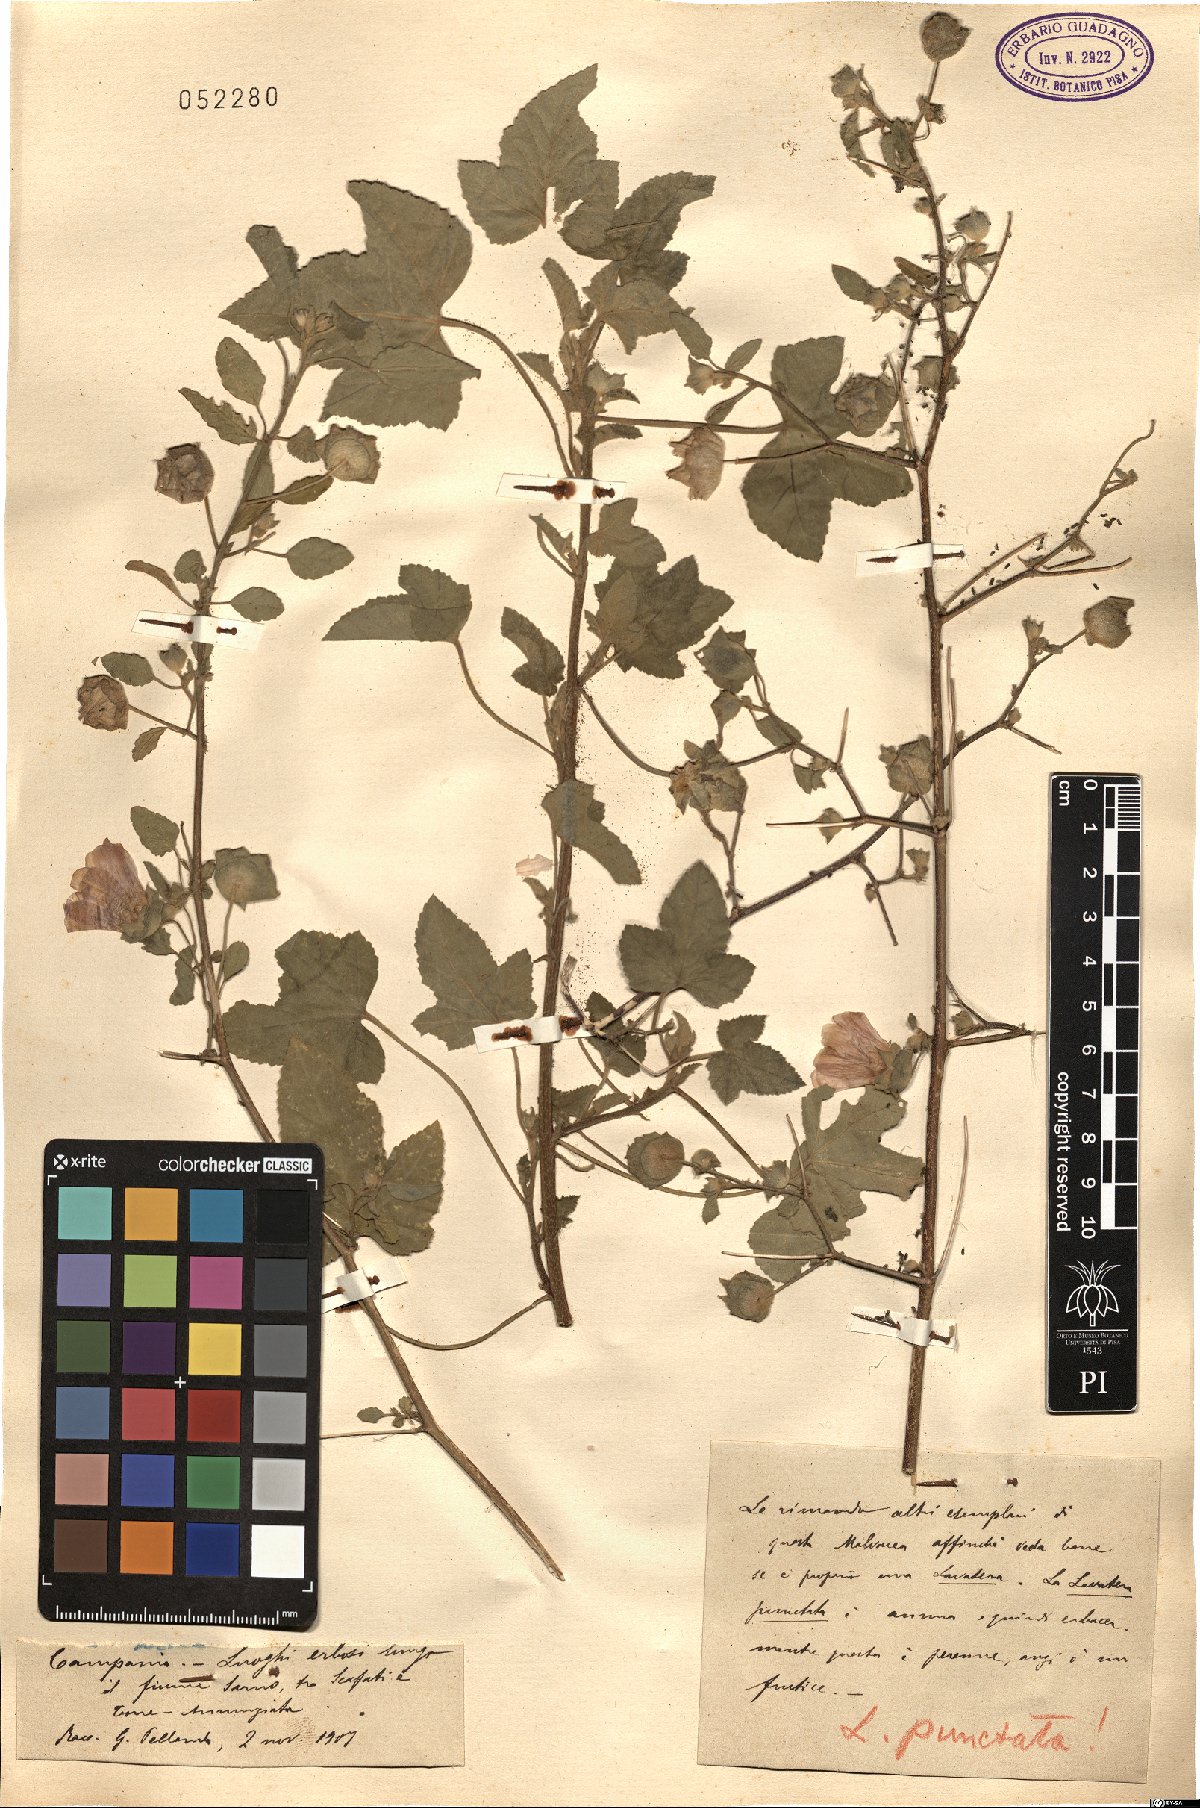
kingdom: Plantae
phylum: Tracheophyta
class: Magnoliopsida
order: Malvales
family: Malvaceae
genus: Malva
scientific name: Malva punctata
